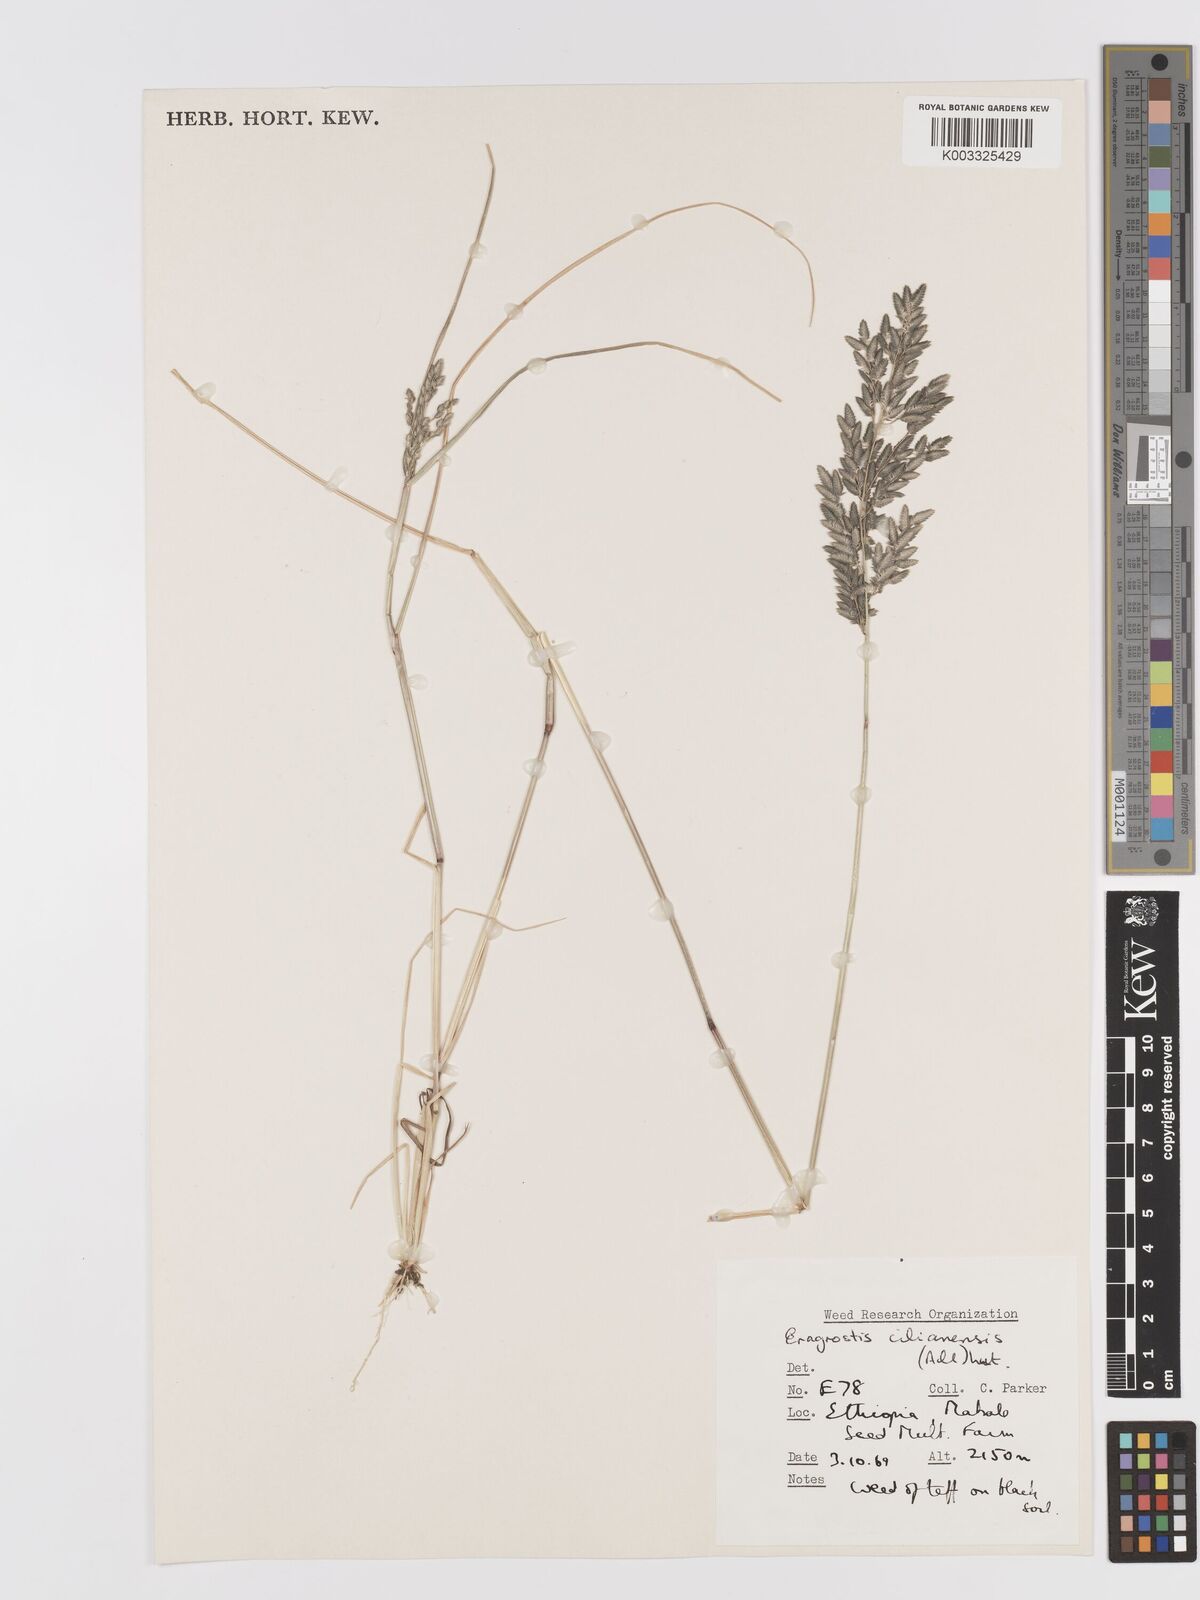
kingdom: Plantae
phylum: Tracheophyta
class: Liliopsida
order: Poales
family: Poaceae
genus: Eragrostis
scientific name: Eragrostis cilianensis
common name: Stinkgrass
